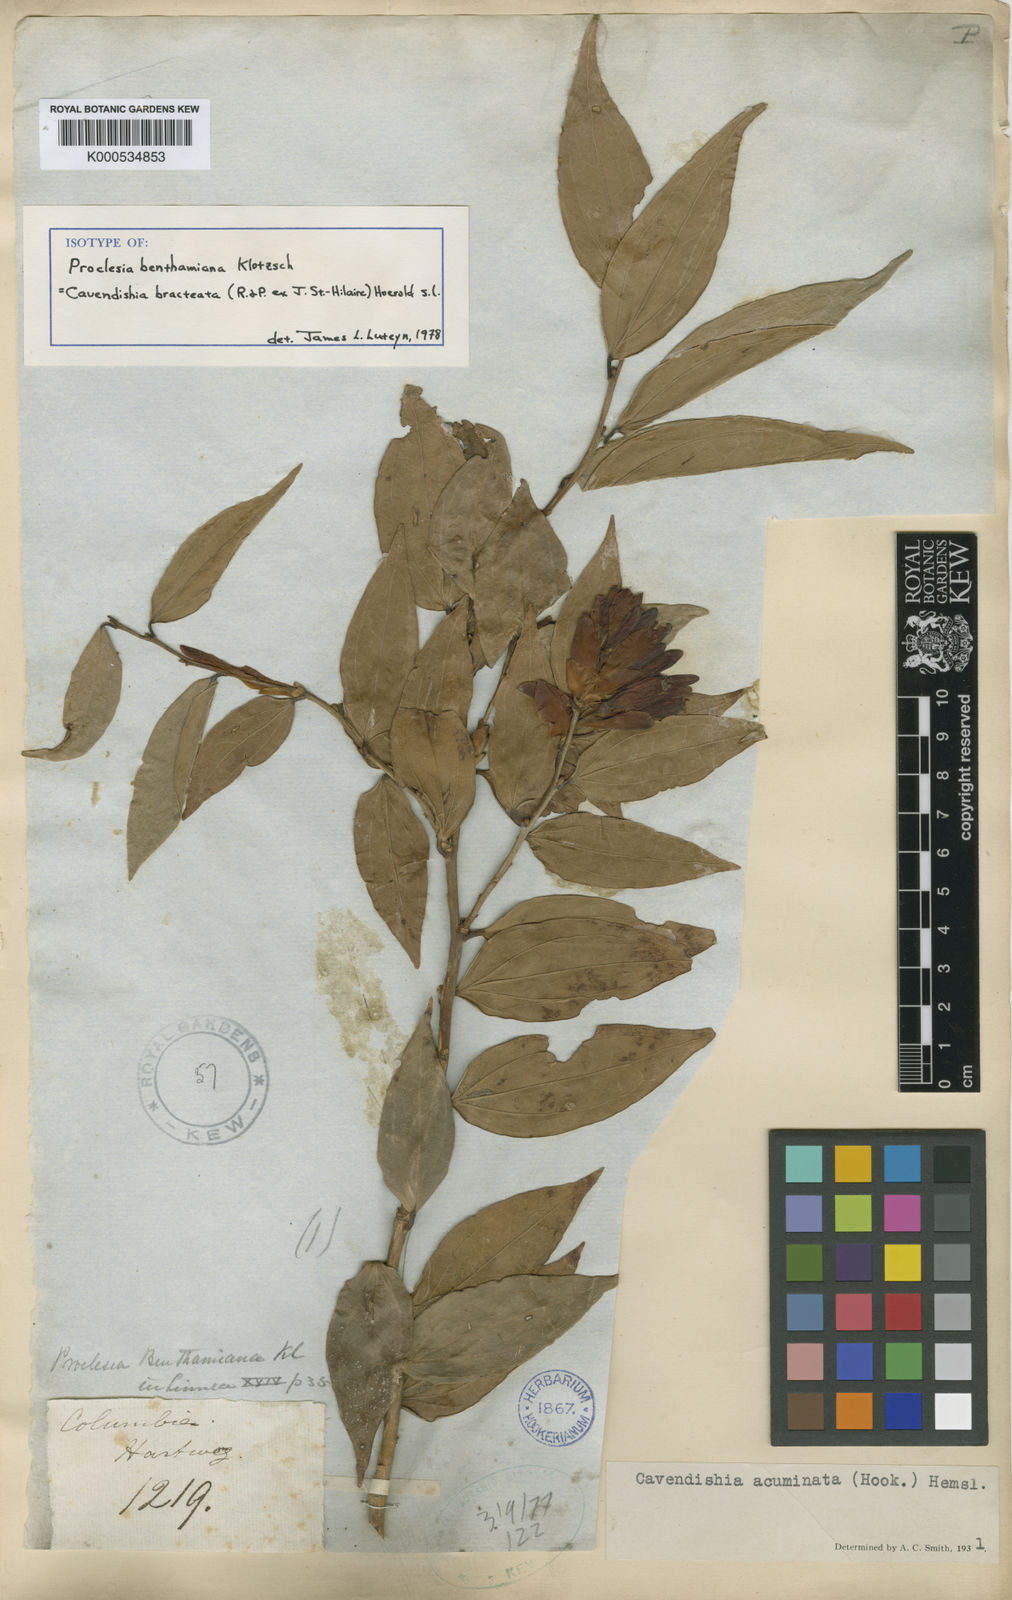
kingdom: Plantae
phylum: Tracheophyta
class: Magnoliopsida
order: Ericales
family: Ericaceae
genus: Cavendishia
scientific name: Cavendishia bracteata
